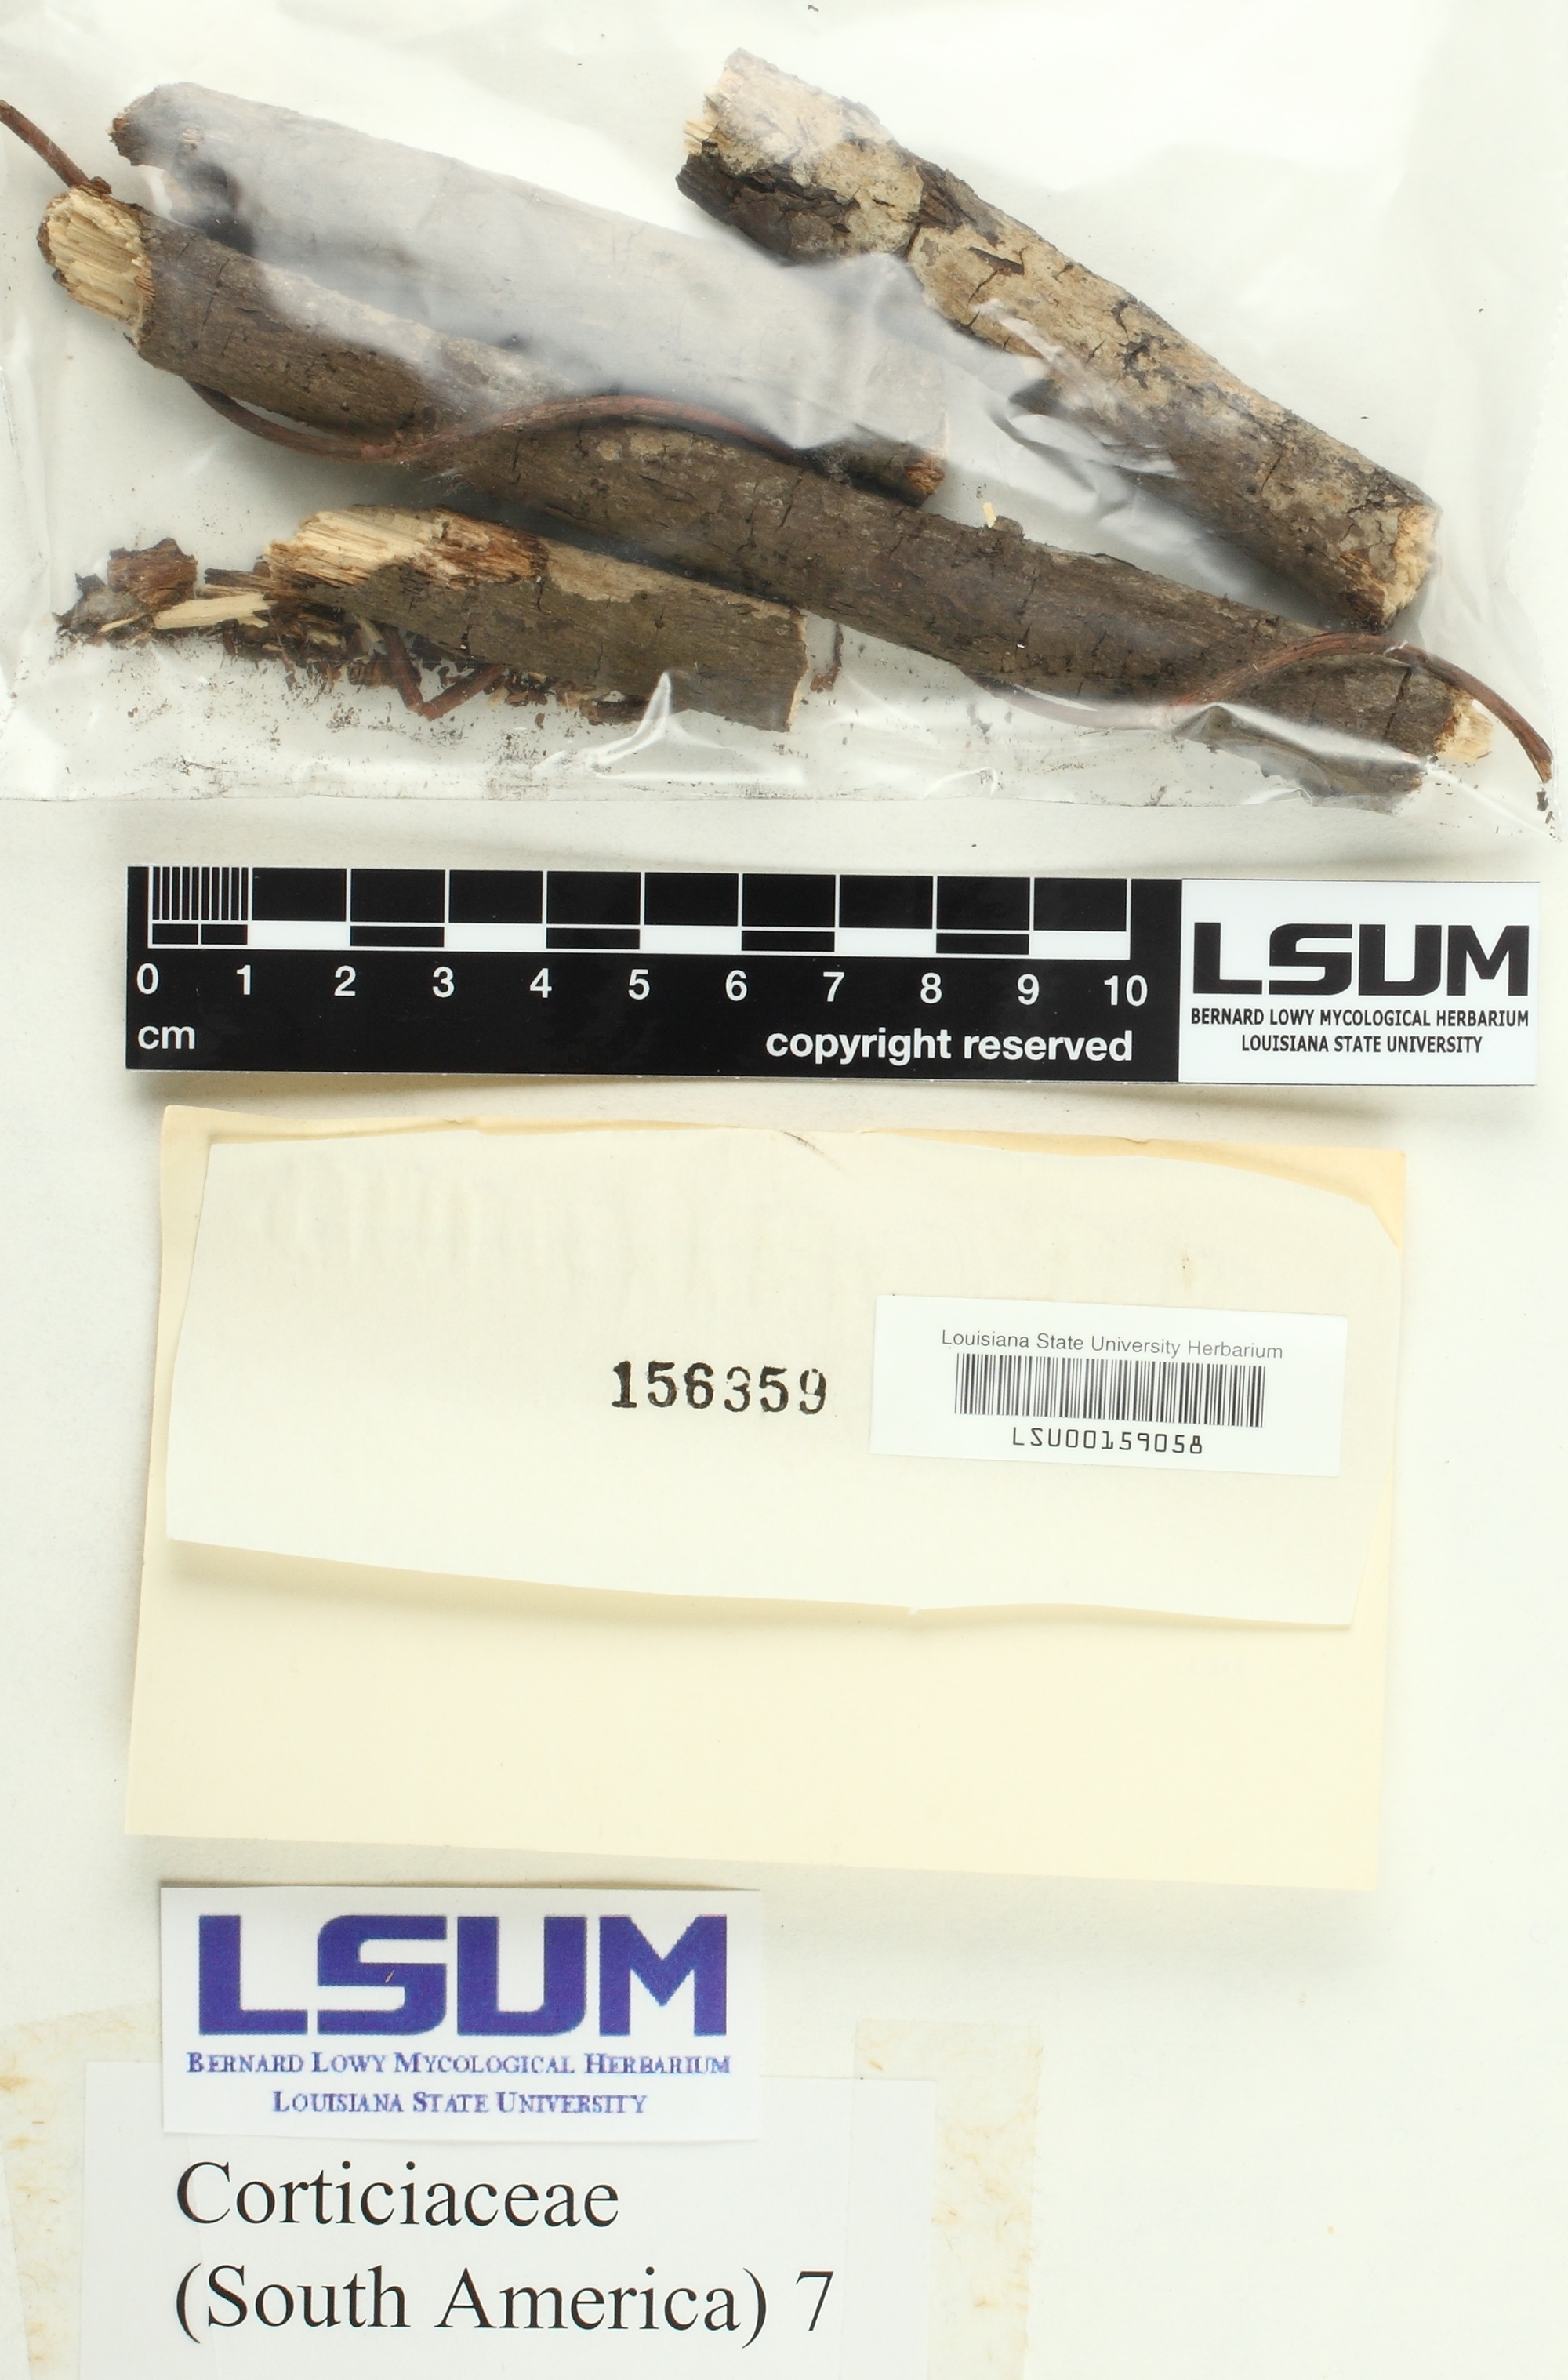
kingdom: Fungi
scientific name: Fungi
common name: Fungi
